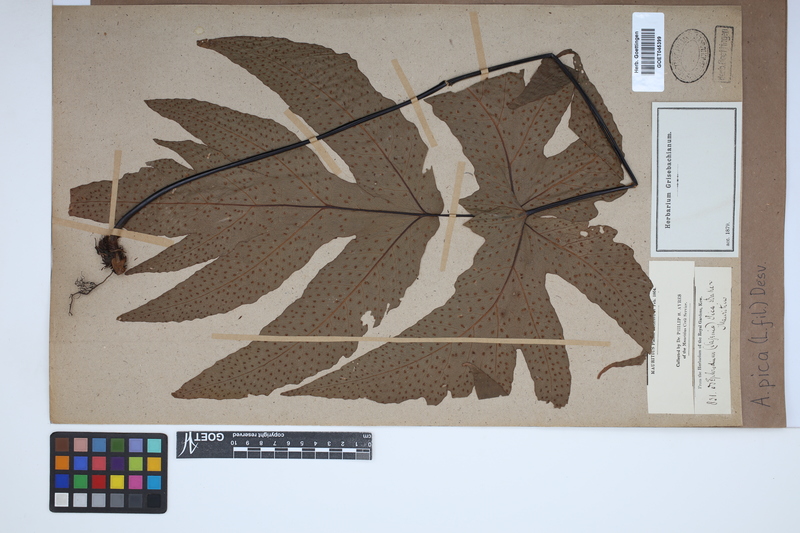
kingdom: Plantae
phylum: Tracheophyta
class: Polypodiopsida
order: Polypodiales
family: Tectariaceae
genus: Tectaria
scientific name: Tectaria pica
